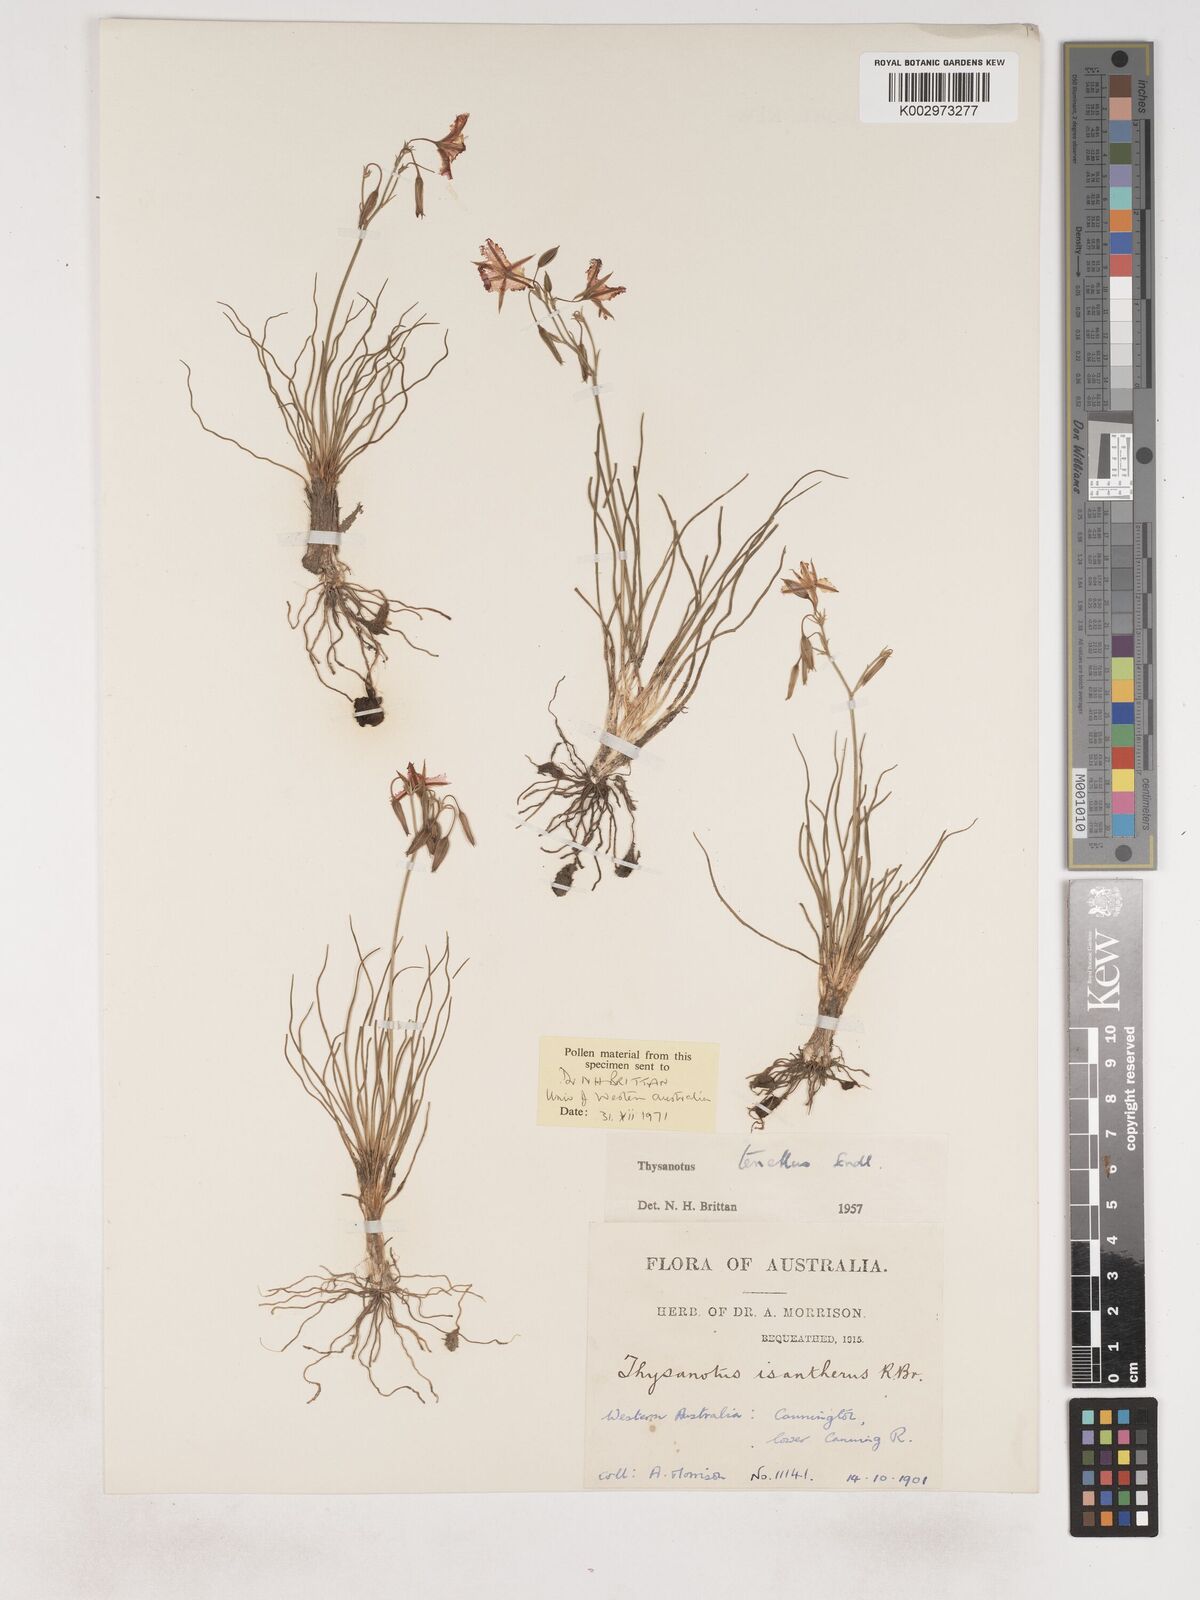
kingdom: Plantae
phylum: Tracheophyta
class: Liliopsida
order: Asparagales
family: Asparagaceae
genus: Thysanotus
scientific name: Thysanotus tenellus
